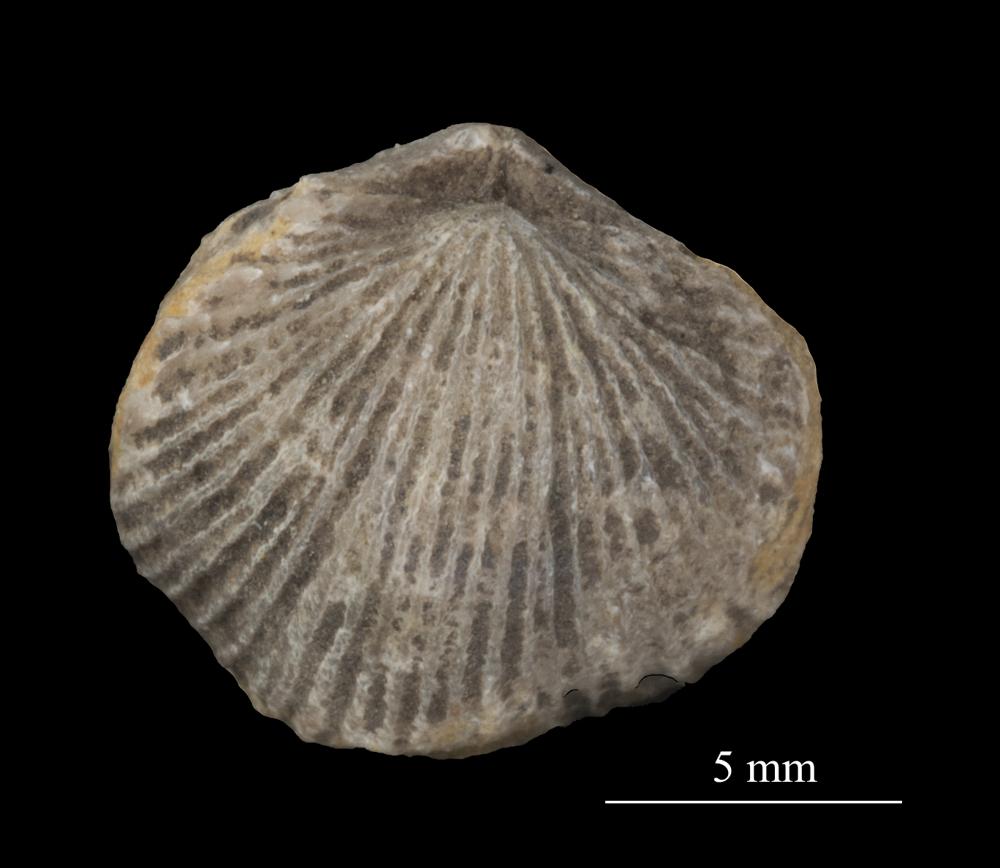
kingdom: Animalia
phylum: Brachiopoda
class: Rhynchonellata
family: Plectorthidae
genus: Platystrophia
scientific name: Platystrophia dentata
